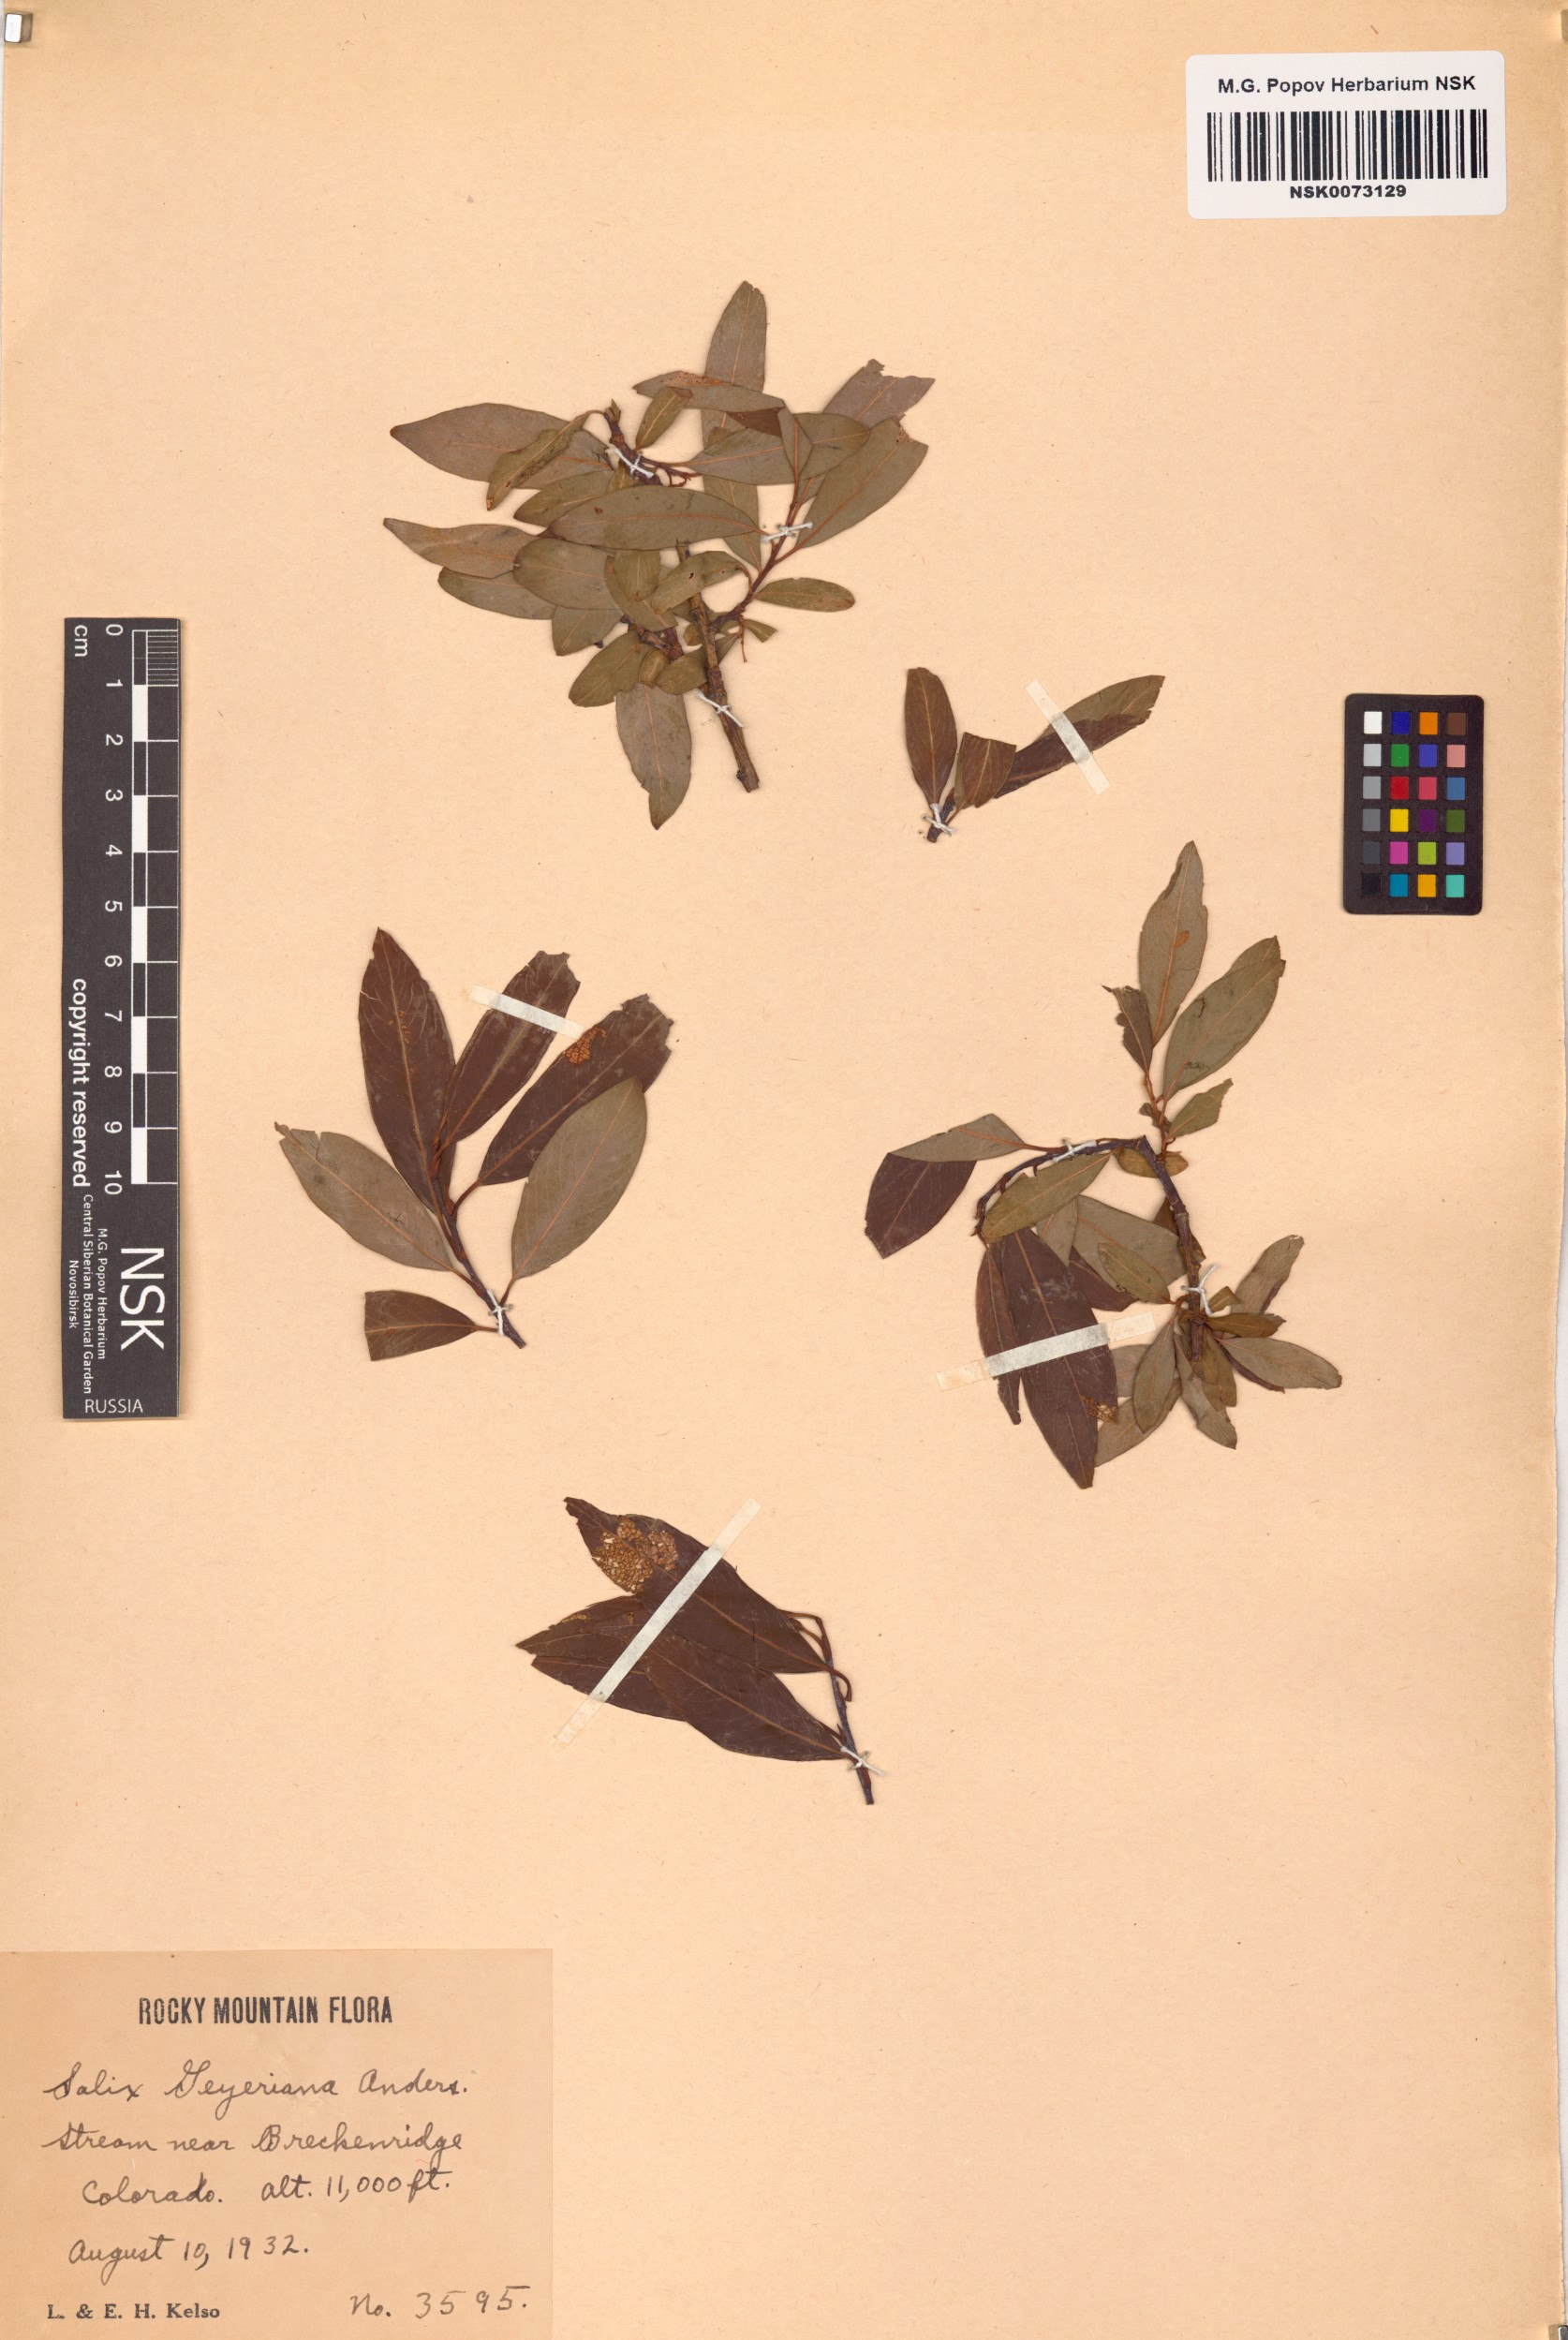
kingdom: Plantae
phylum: Tracheophyta
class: Magnoliopsida
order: Malpighiales
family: Salicaceae
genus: Salix
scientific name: Salix geyeriana
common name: Geyer's willow
